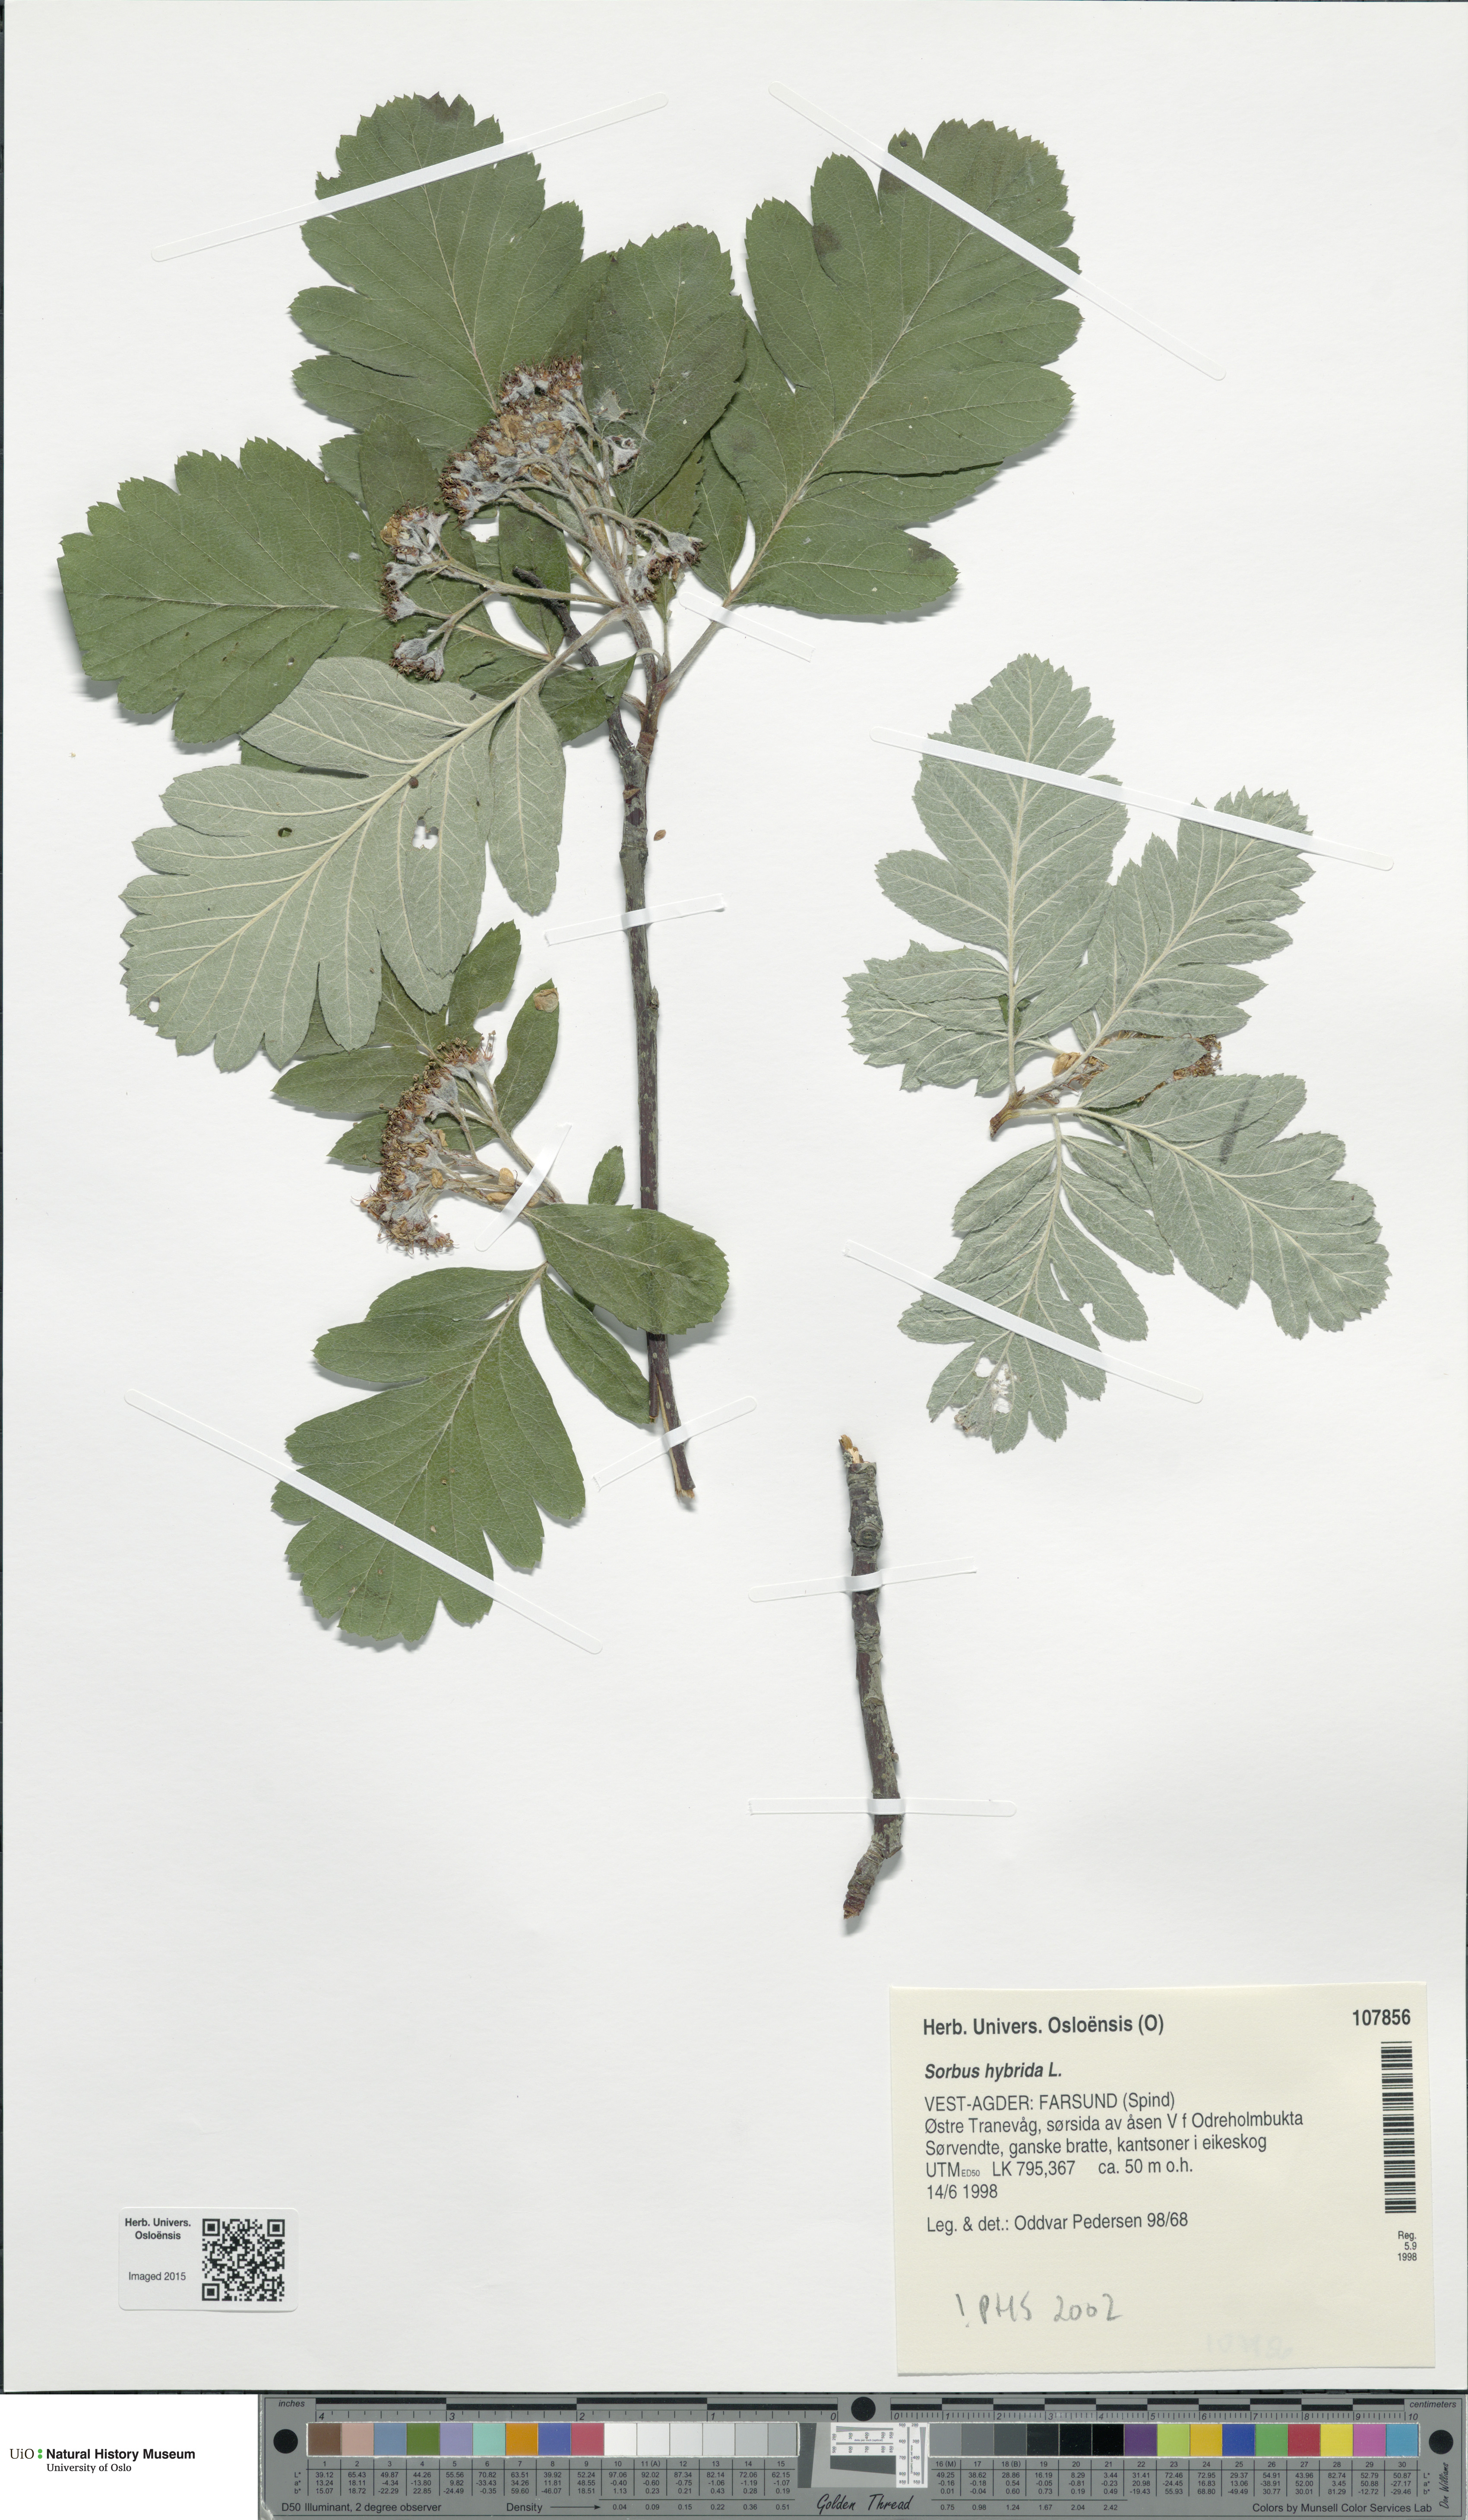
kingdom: Plantae
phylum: Tracheophyta
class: Magnoliopsida
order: Rosales
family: Rosaceae
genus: Hedlundia
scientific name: Hedlundia hybrida
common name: Swedish service-tree
